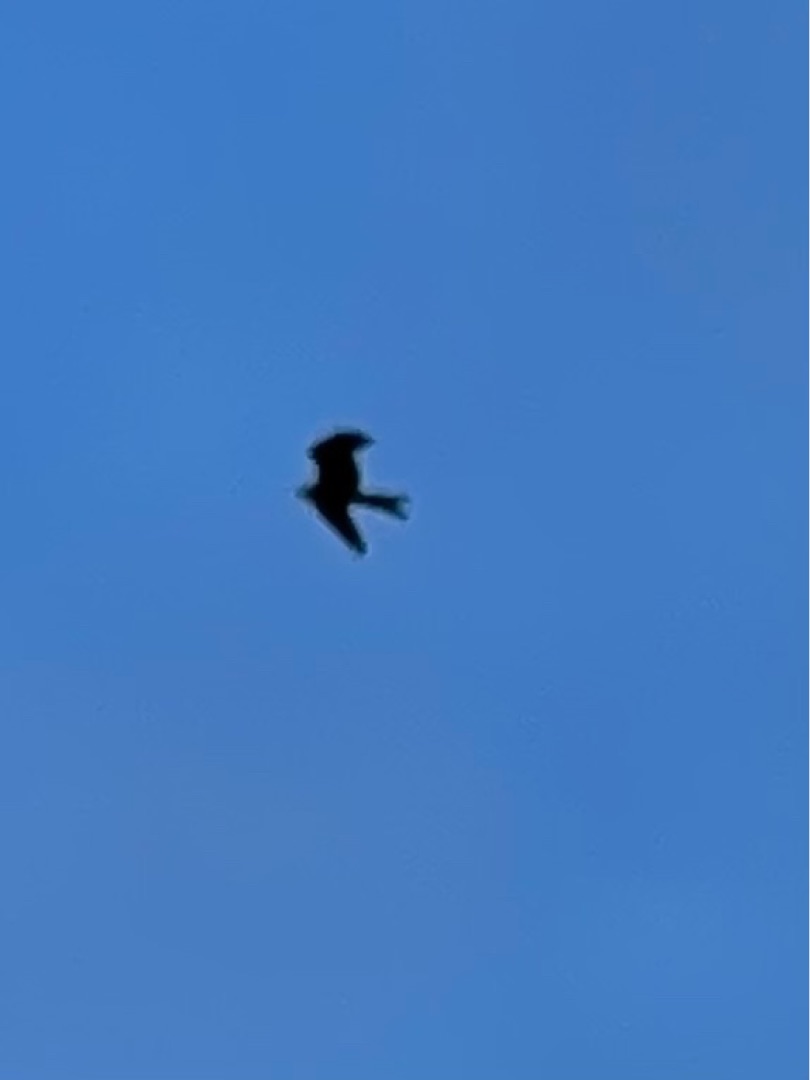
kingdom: Animalia
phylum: Chordata
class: Aves
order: Accipitriformes
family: Accipitridae
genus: Milvus
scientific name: Milvus milvus
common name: Rød glente
